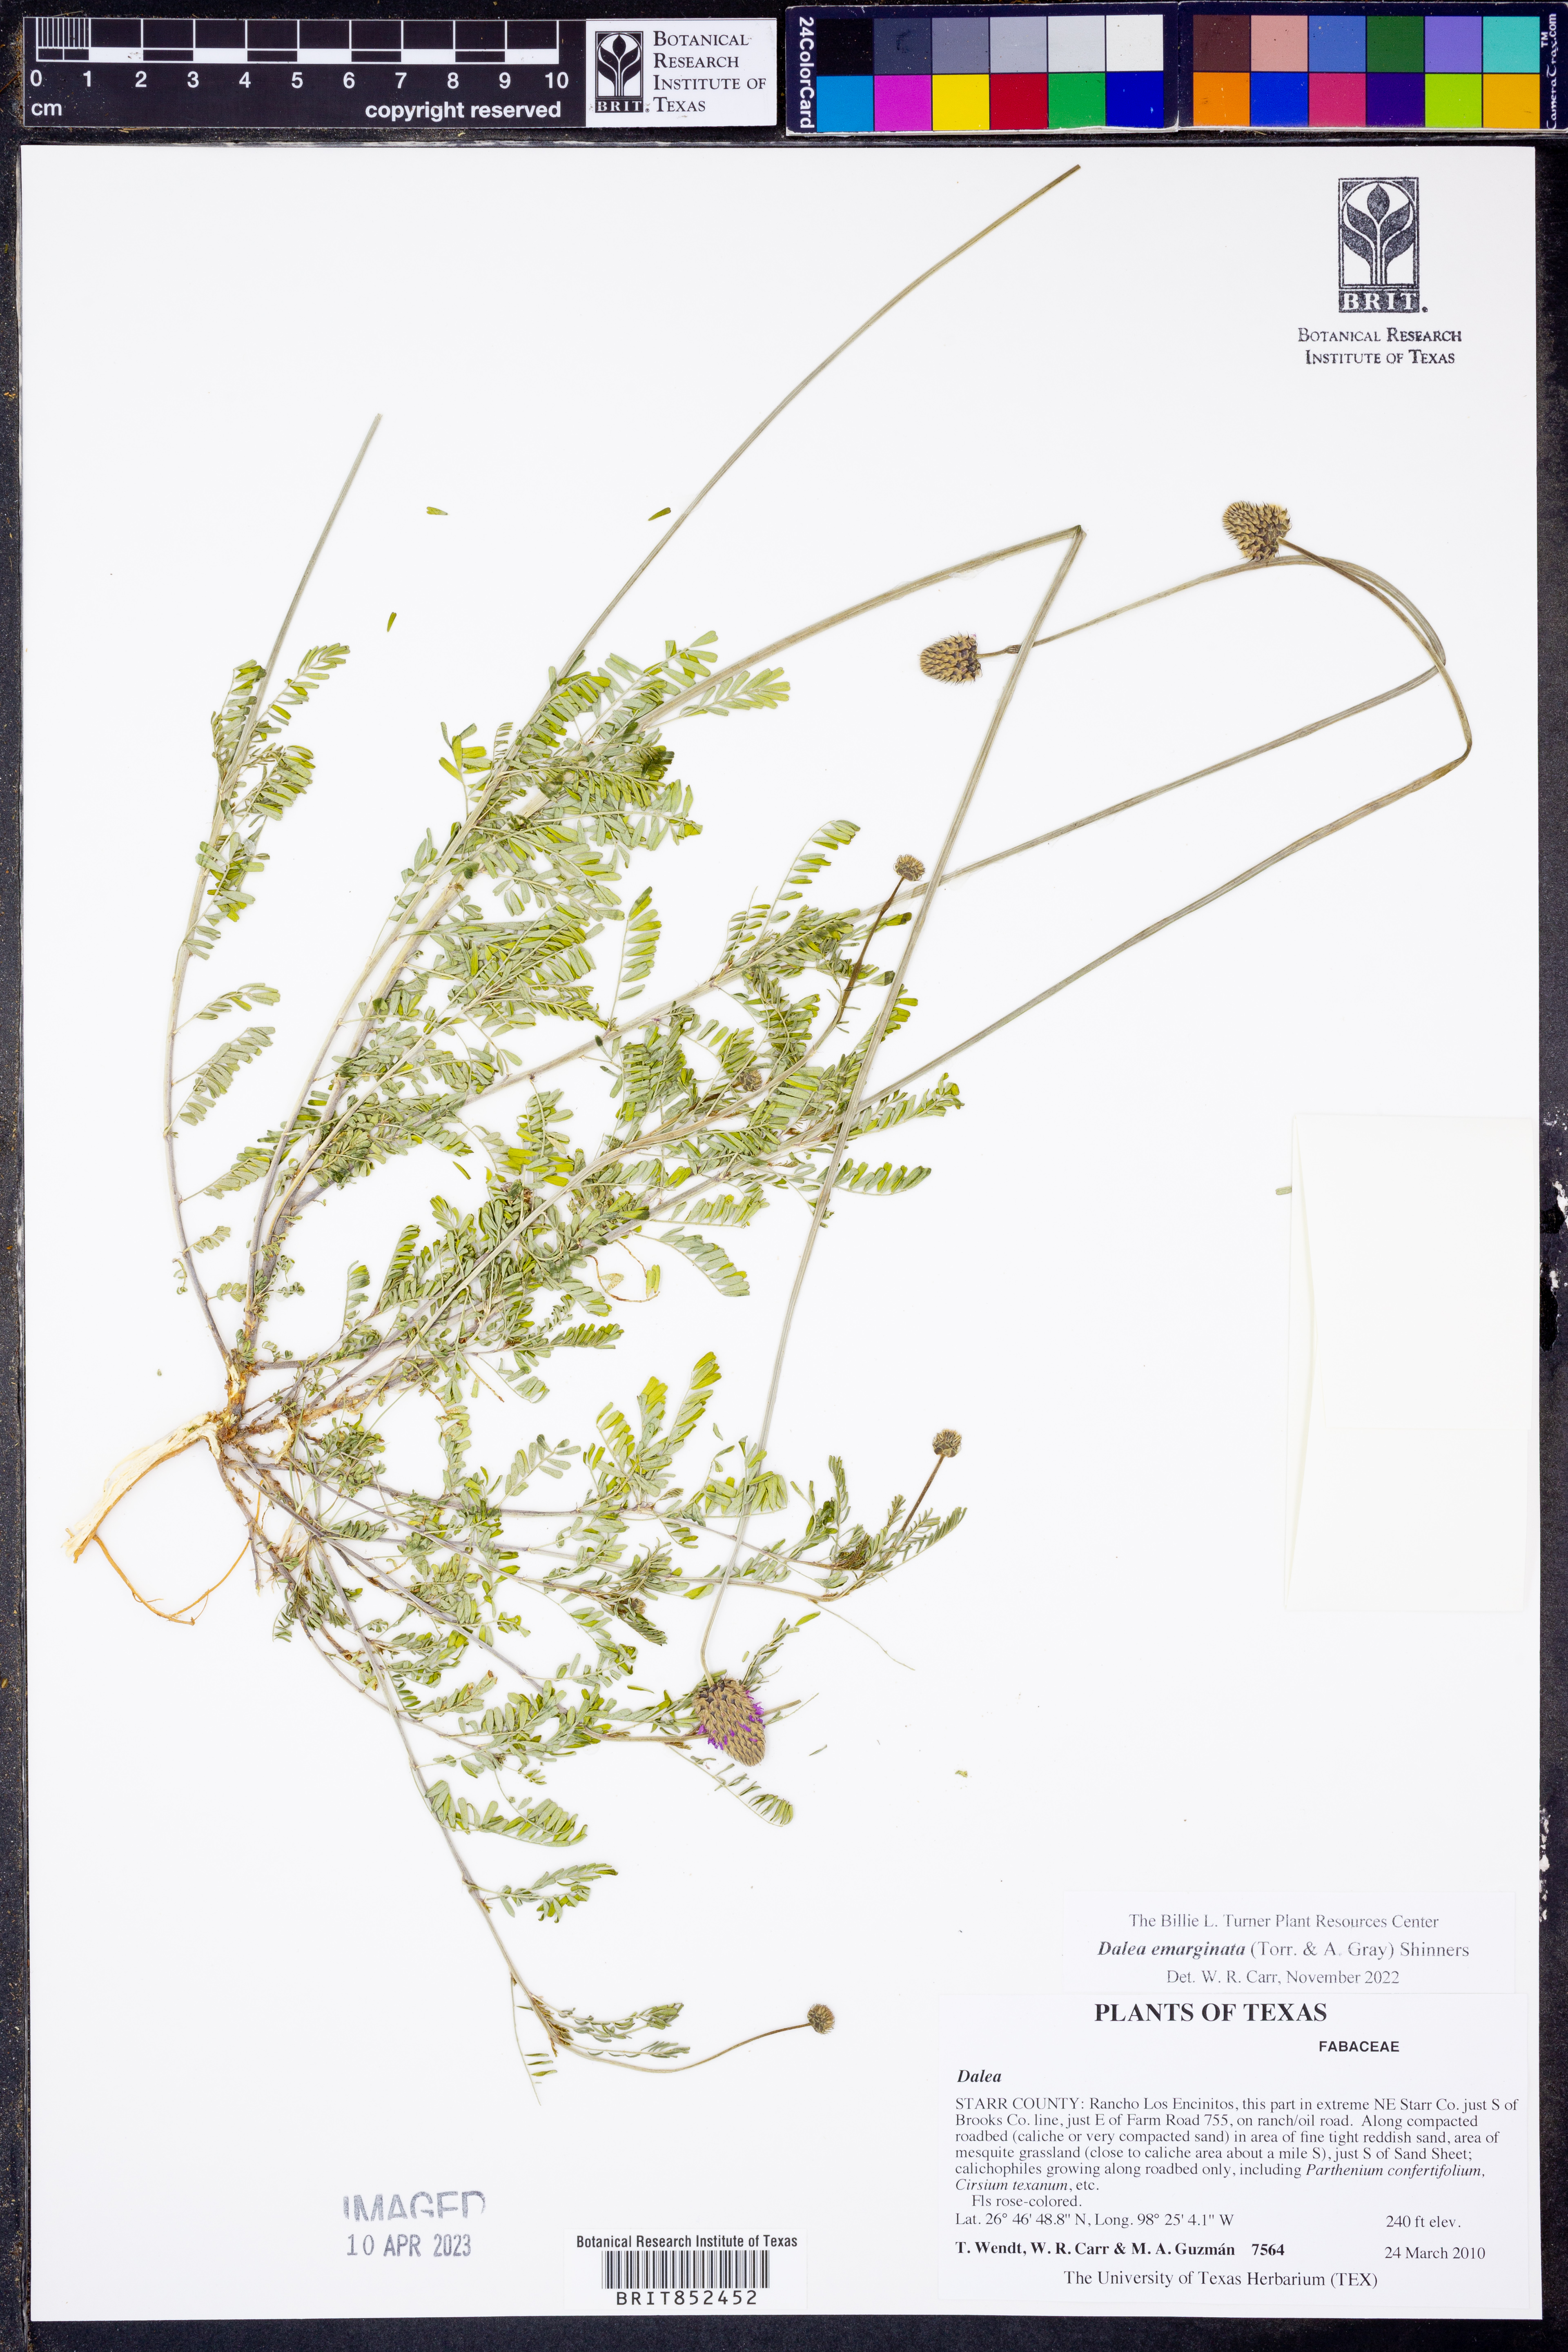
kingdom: Plantae
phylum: Tracheophyta
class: Magnoliopsida
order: Fabales
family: Fabaceae
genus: Dalea
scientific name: Dalea emarginata
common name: Wedgeleaf prairie clover
